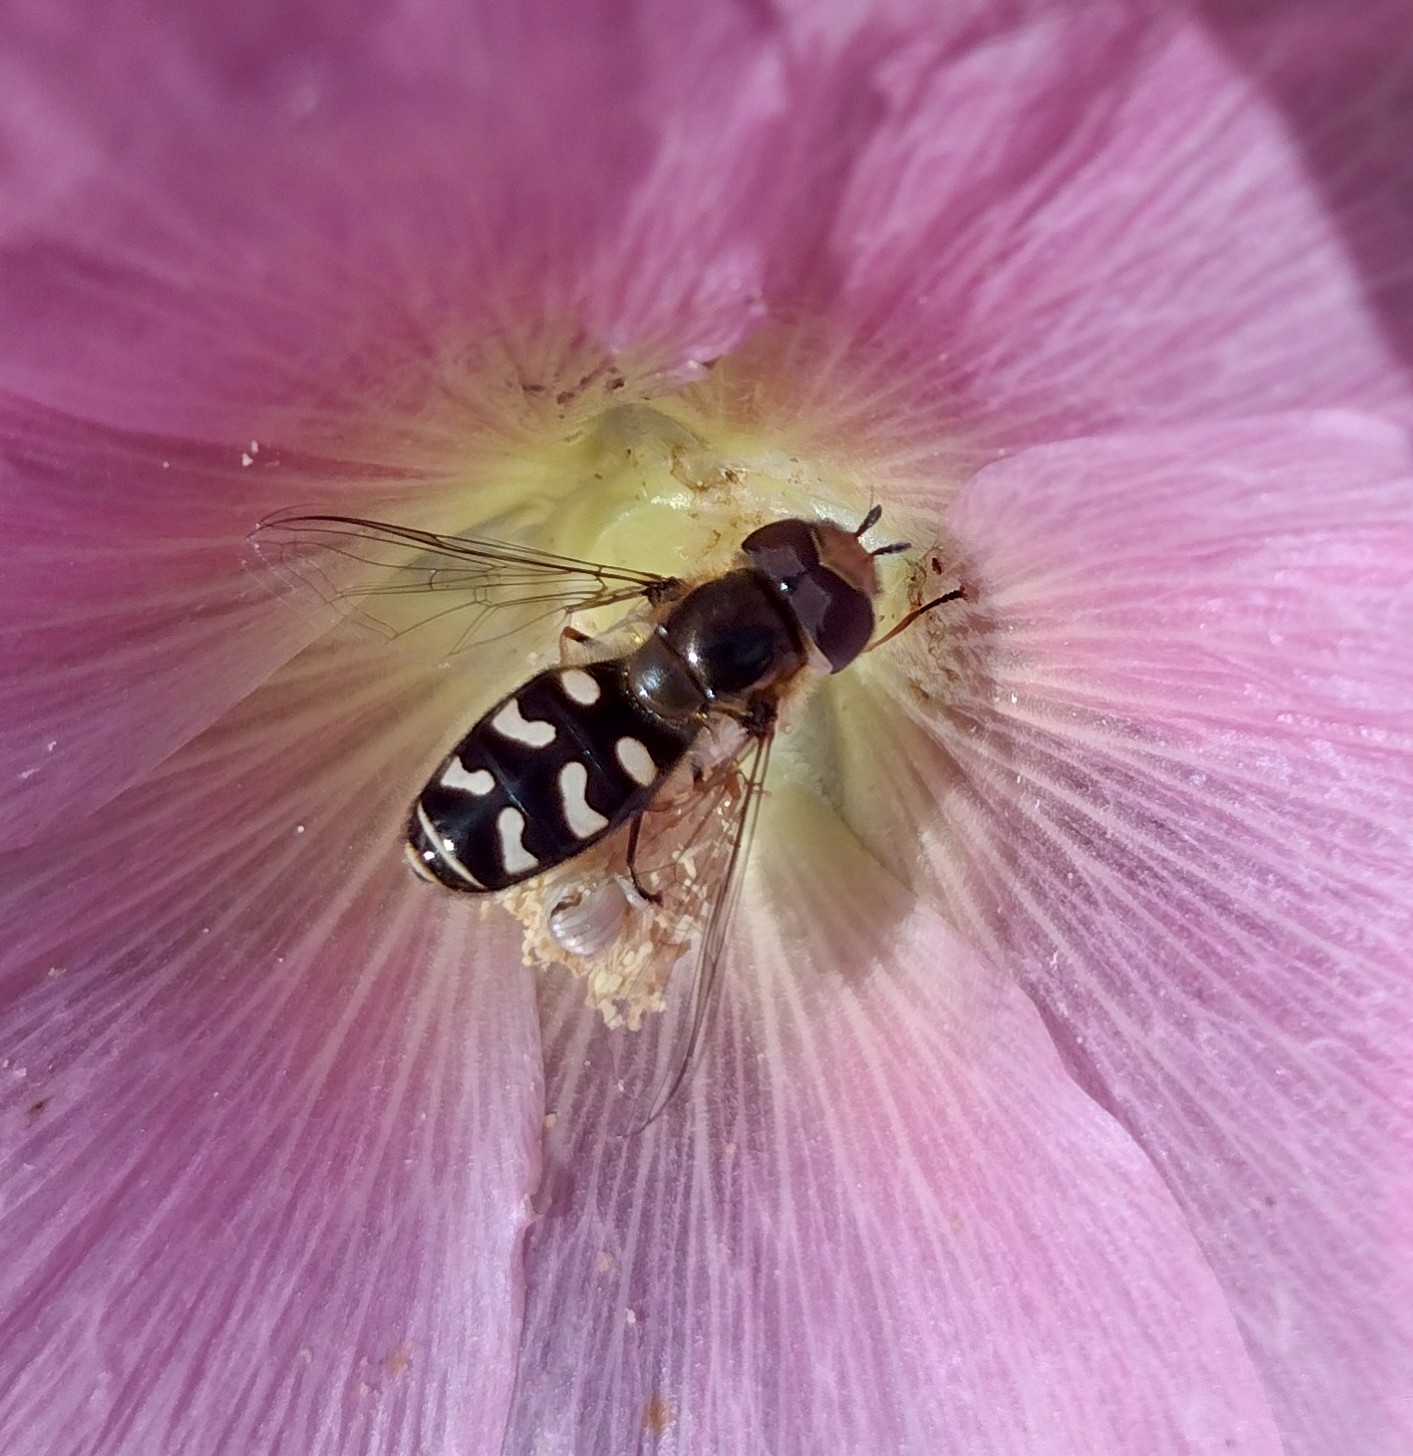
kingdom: Animalia
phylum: Arthropoda
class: Insecta
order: Diptera
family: Syrphidae
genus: Scaeva
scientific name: Scaeva pyrastri
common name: Hvidplettet agersvirreflue
